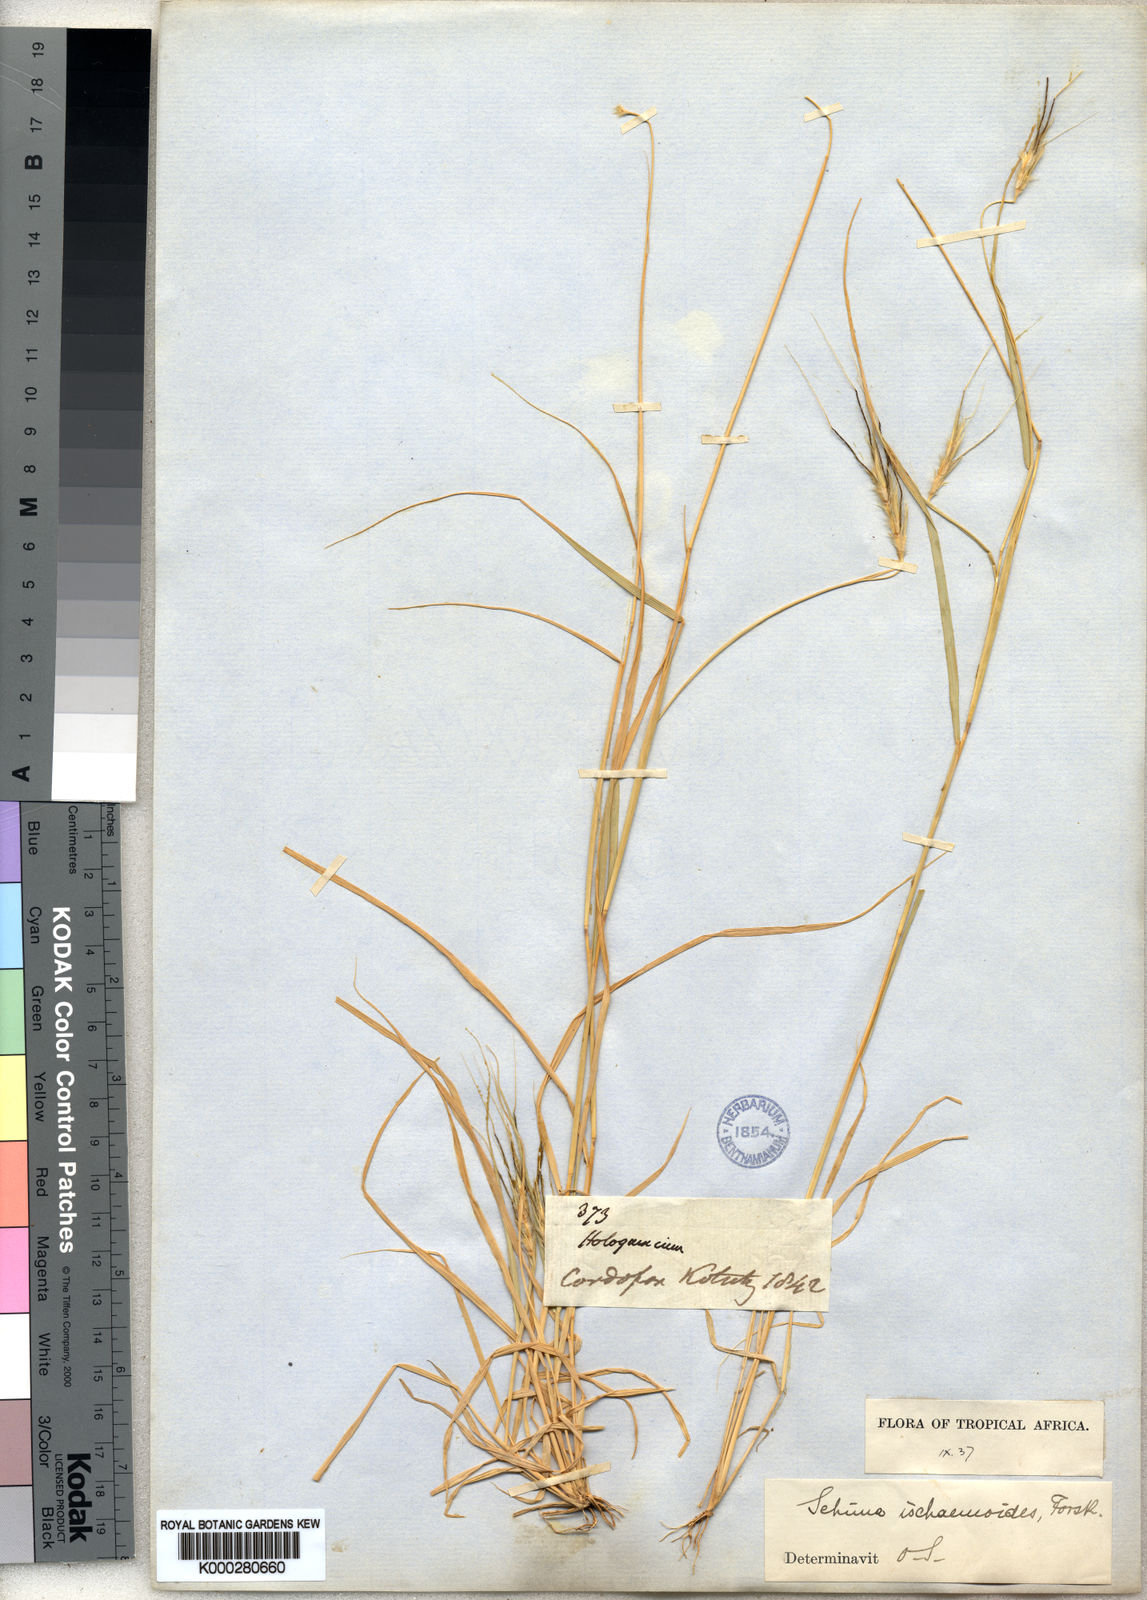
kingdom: Plantae
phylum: Tracheophyta
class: Liliopsida
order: Poales
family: Poaceae
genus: Sehima
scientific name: Sehima ischaemoides
